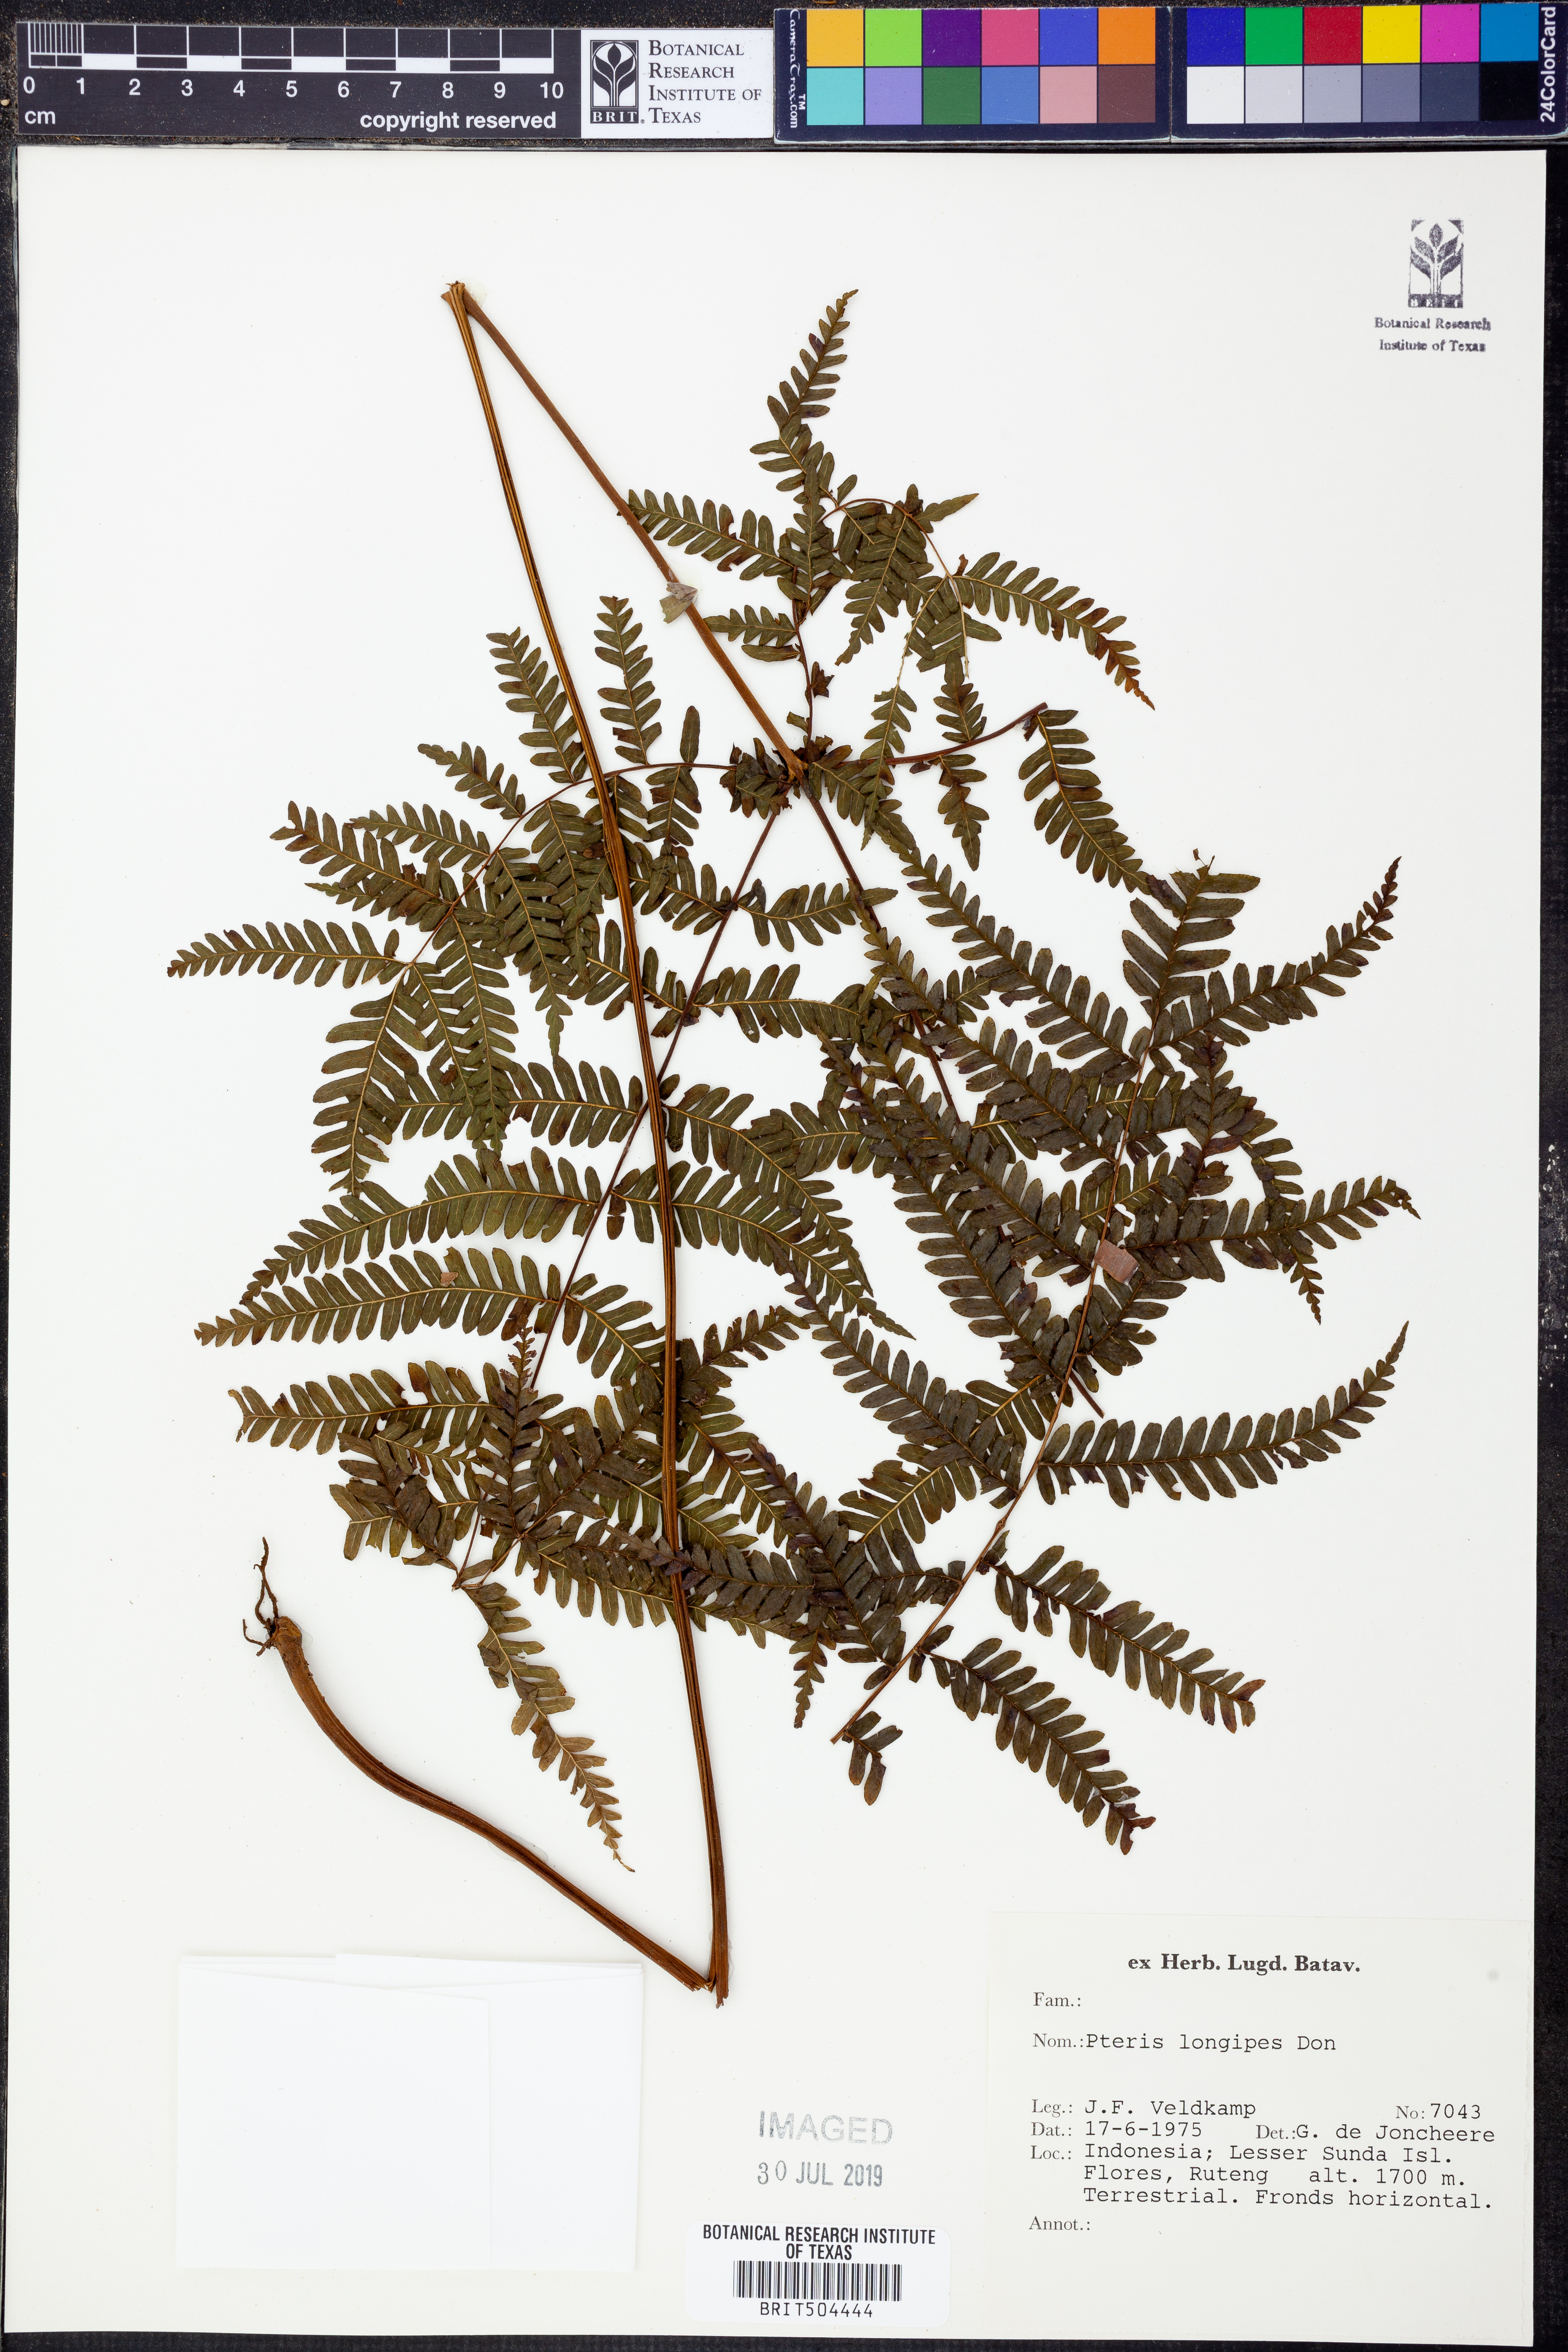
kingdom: Plantae
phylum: Tracheophyta
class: Polypodiopsida
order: Polypodiales
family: Pteridaceae
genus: Pteris
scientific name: Pteris longipes
